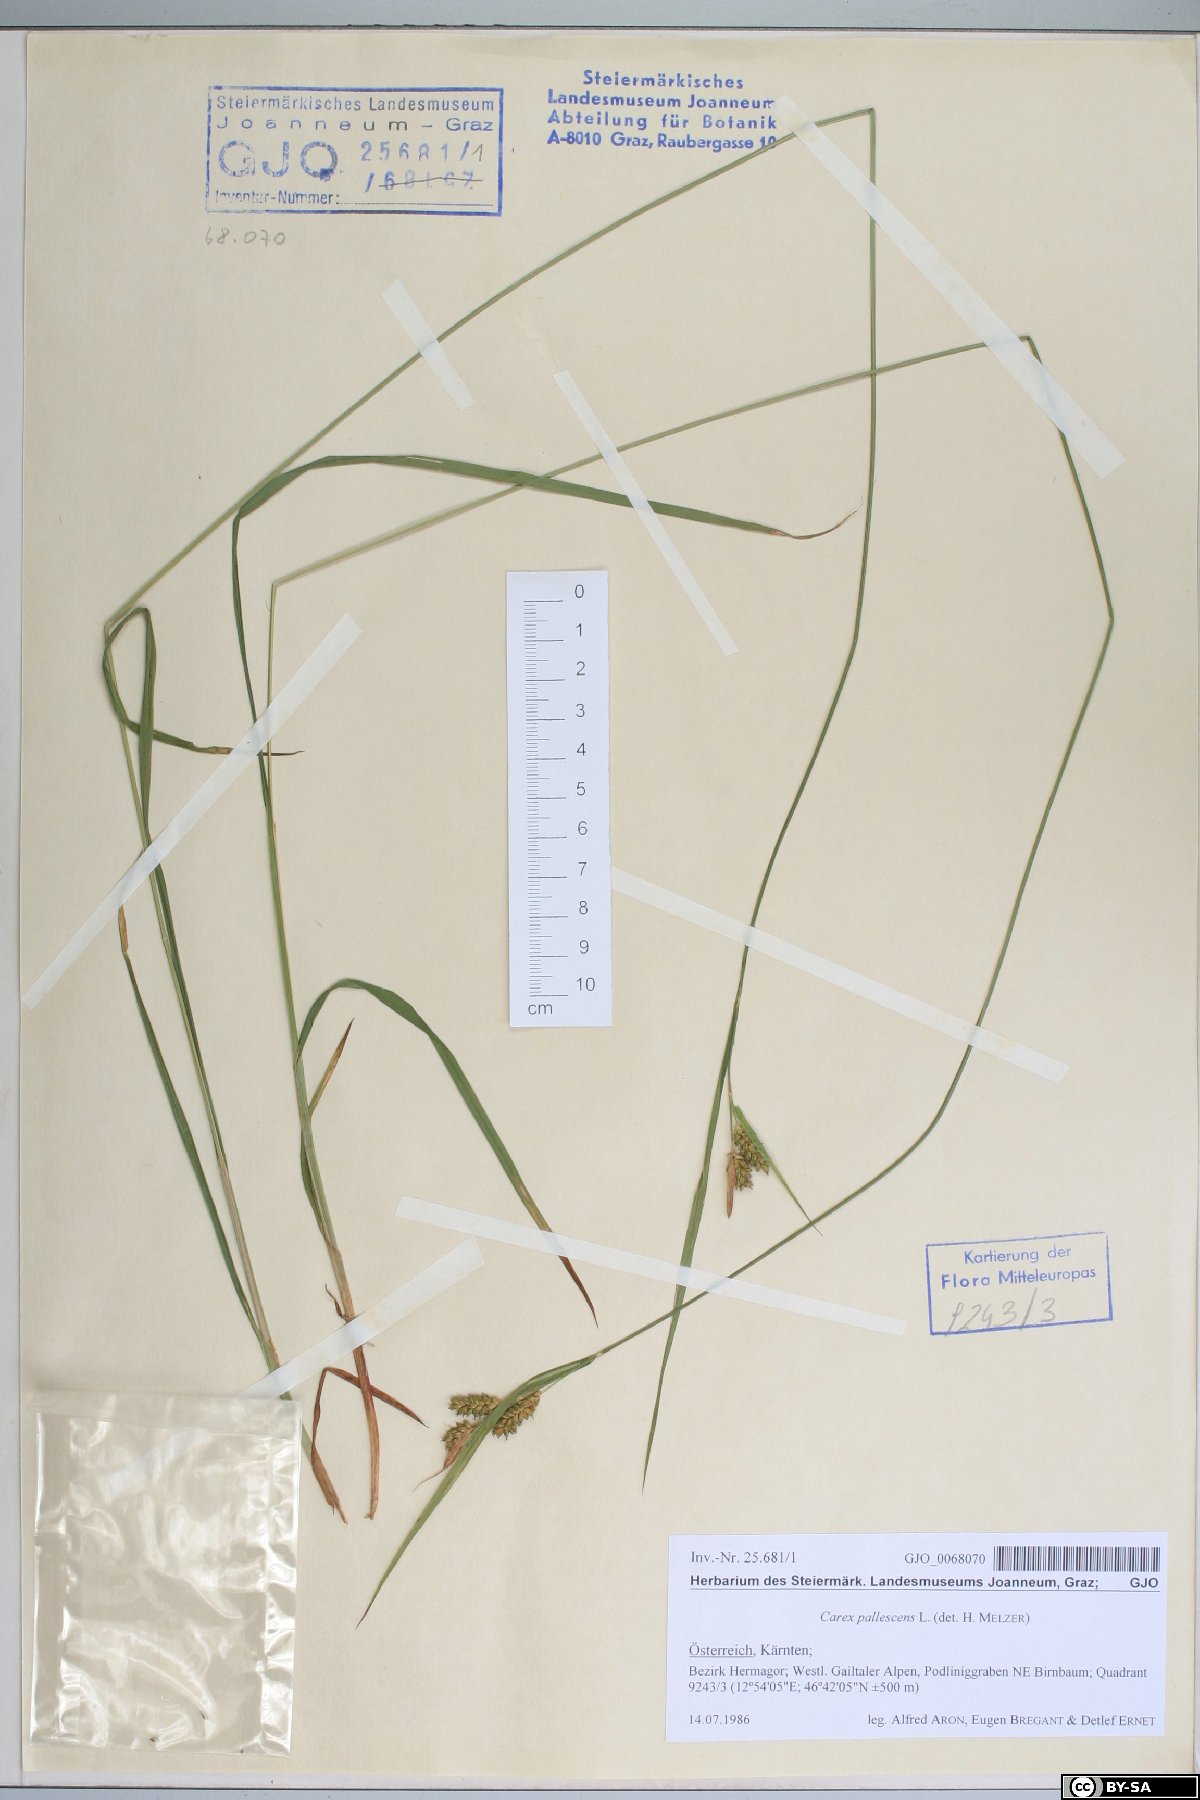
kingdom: Plantae
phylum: Tracheophyta
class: Liliopsida
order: Poales
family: Cyperaceae
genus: Carex
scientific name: Carex pallescens
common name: Pale sedge
